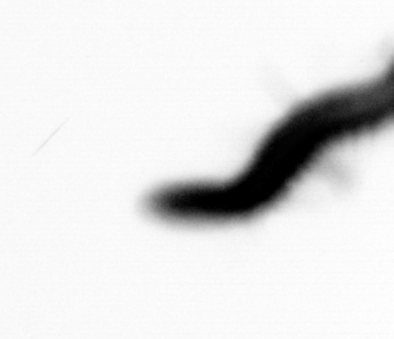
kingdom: Animalia
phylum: Annelida
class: Polychaeta
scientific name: Polychaeta
